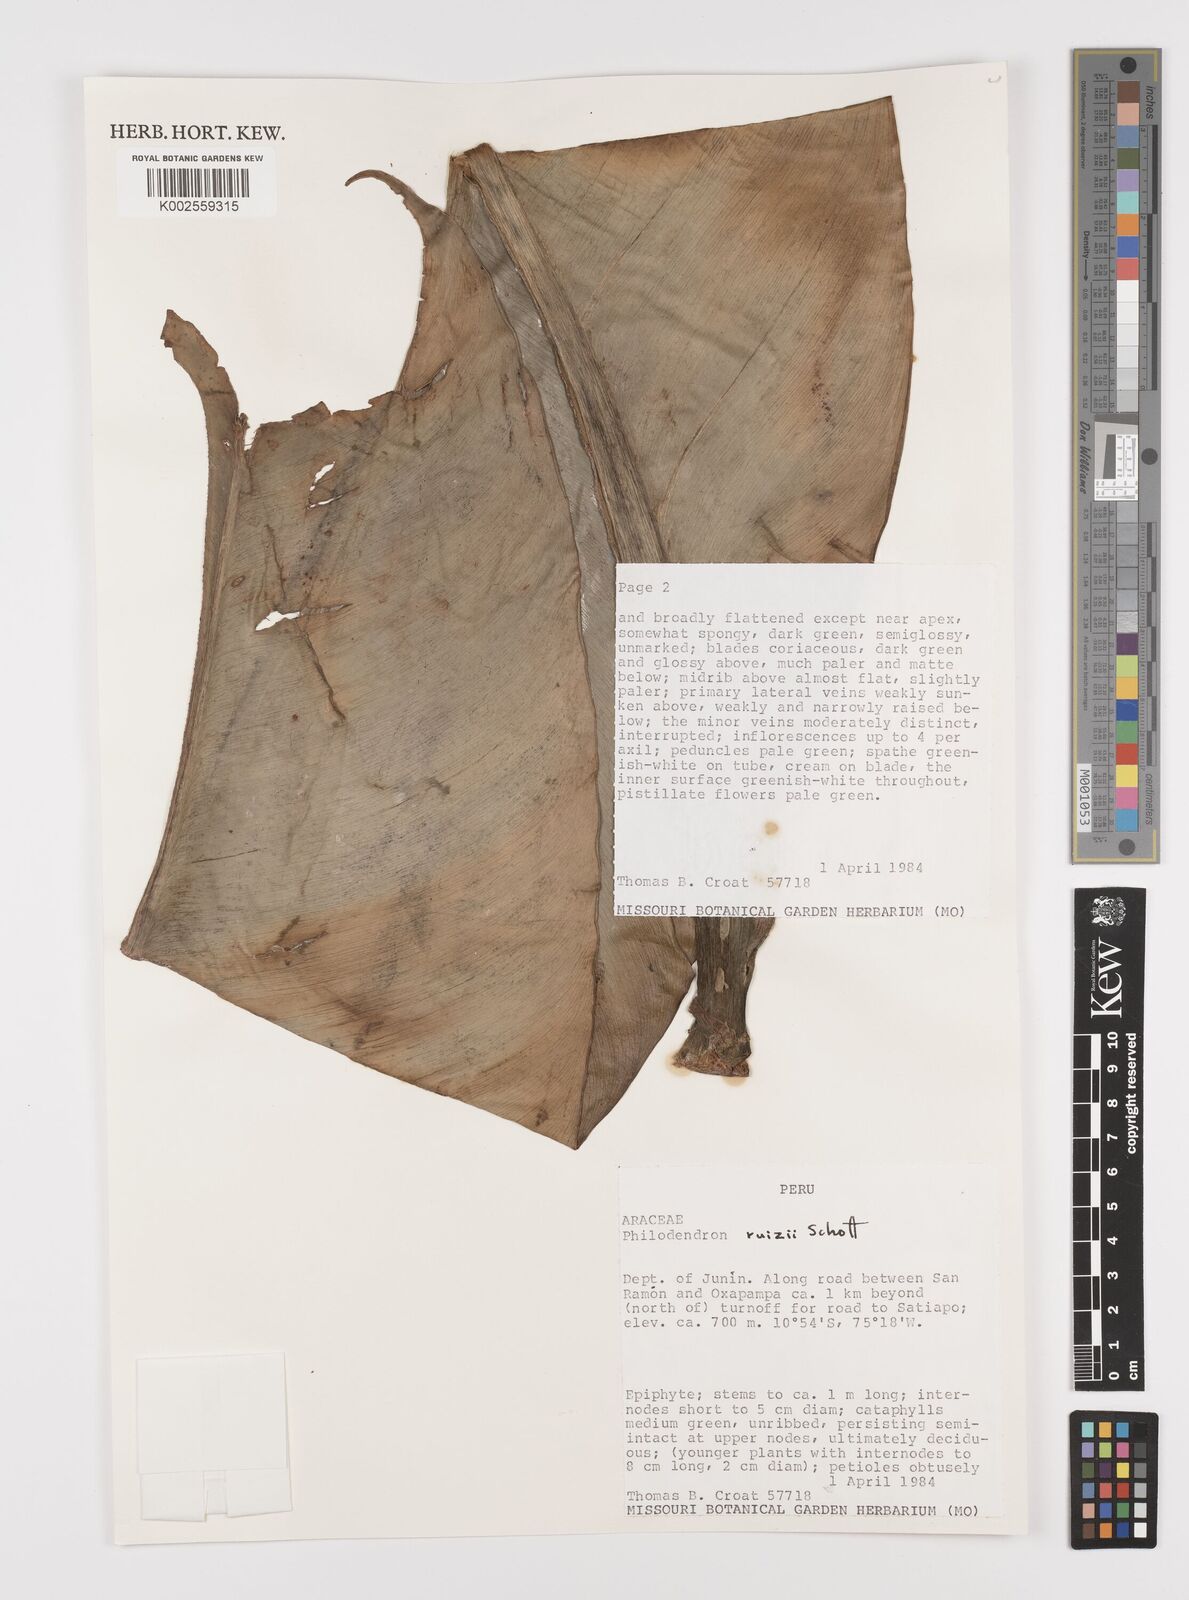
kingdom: Plantae
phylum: Tracheophyta
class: Liliopsida
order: Alismatales
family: Araceae
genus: Philodendron
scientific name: Philodendron ruizii
